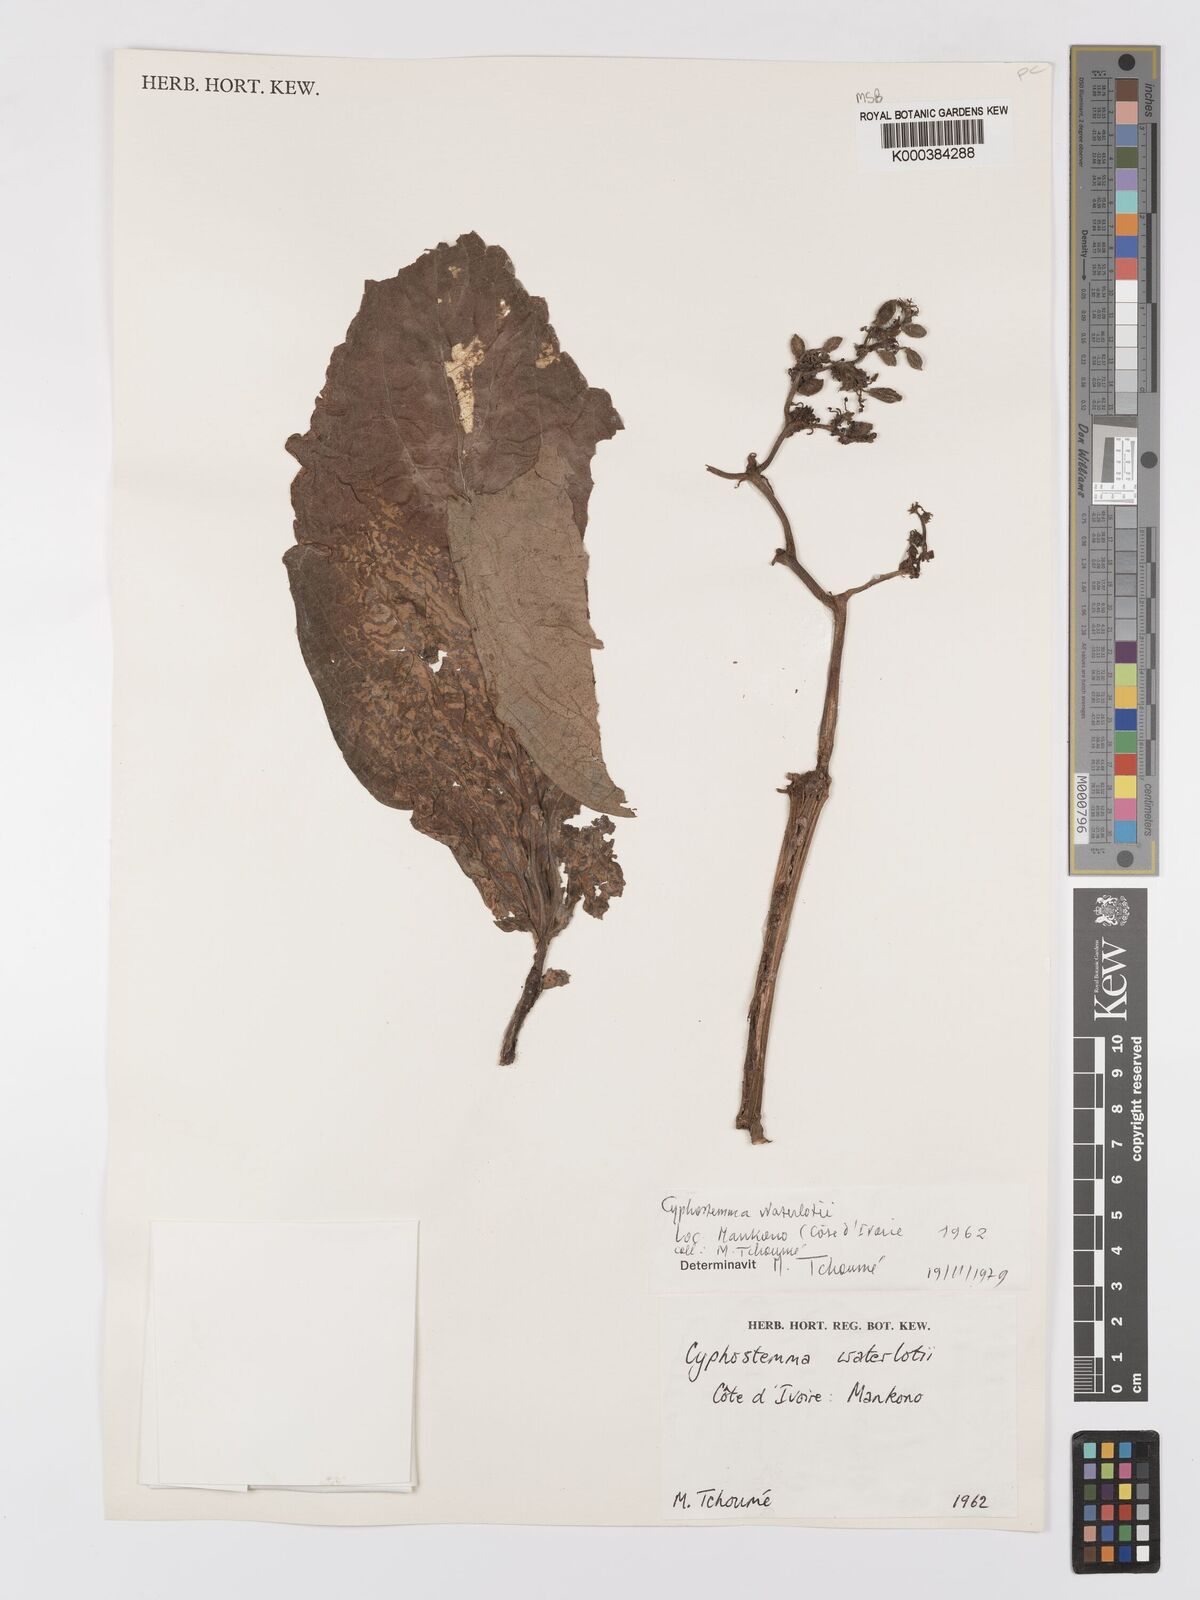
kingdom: Plantae
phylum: Tracheophyta
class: Magnoliopsida
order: Vitales
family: Vitaceae
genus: Cyphostemma
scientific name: Cyphostemma waterlotii
